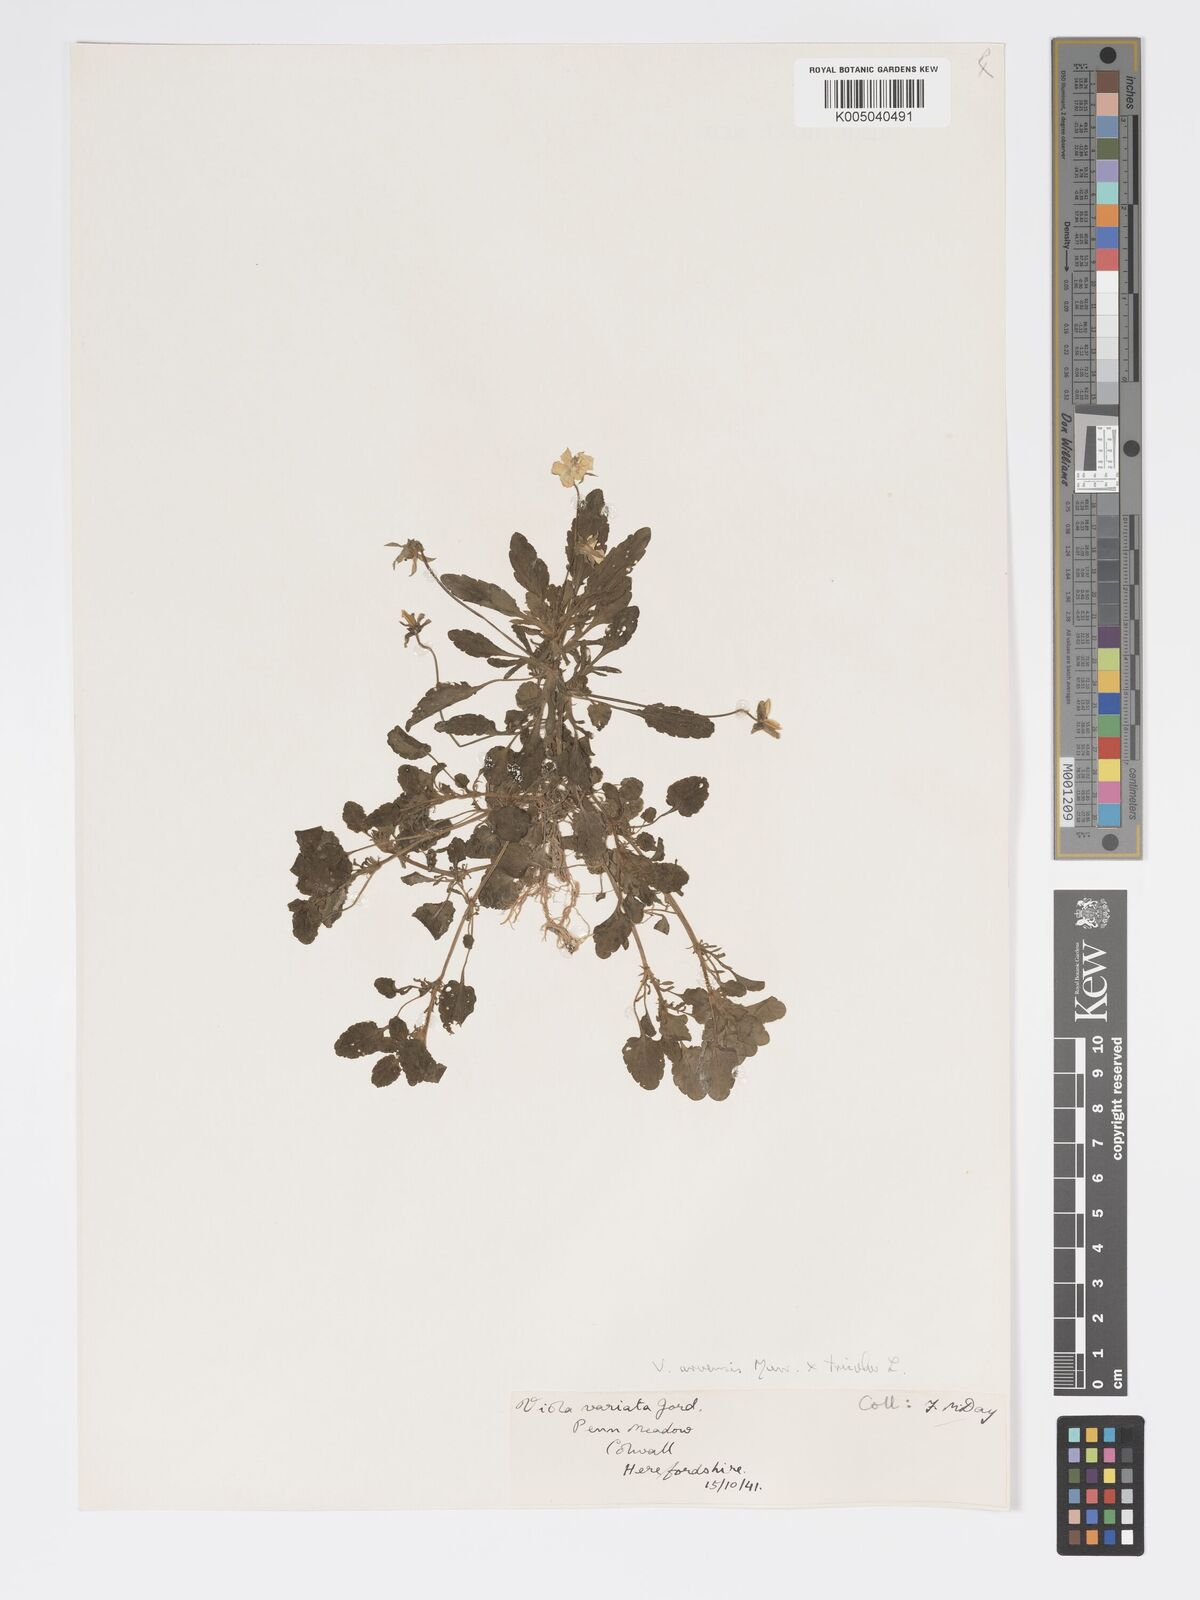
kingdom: Plantae
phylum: Tracheophyta
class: Magnoliopsida
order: Malpighiales
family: Violaceae
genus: Viola
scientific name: Viola arvensis
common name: Field pansy
